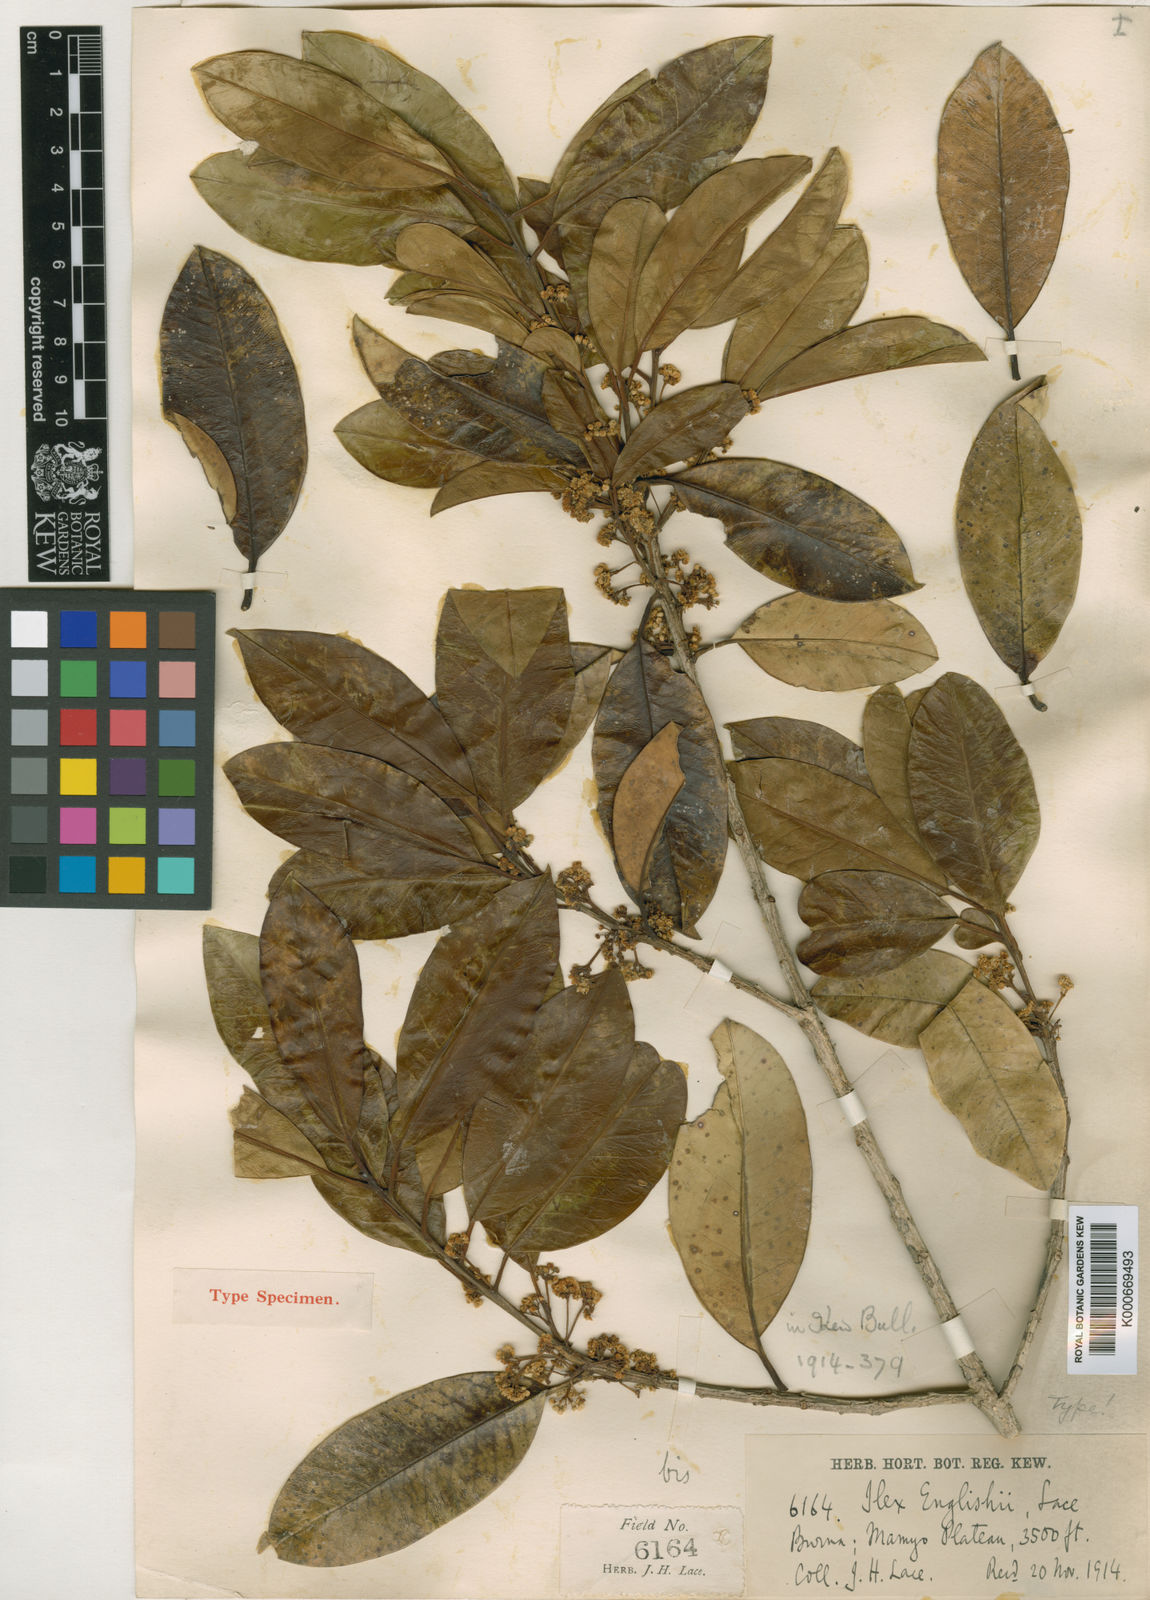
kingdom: Plantae
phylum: Tracheophyta
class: Magnoliopsida
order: Aquifoliales
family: Aquifoliaceae
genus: Ilex
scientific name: Ilex englishii
